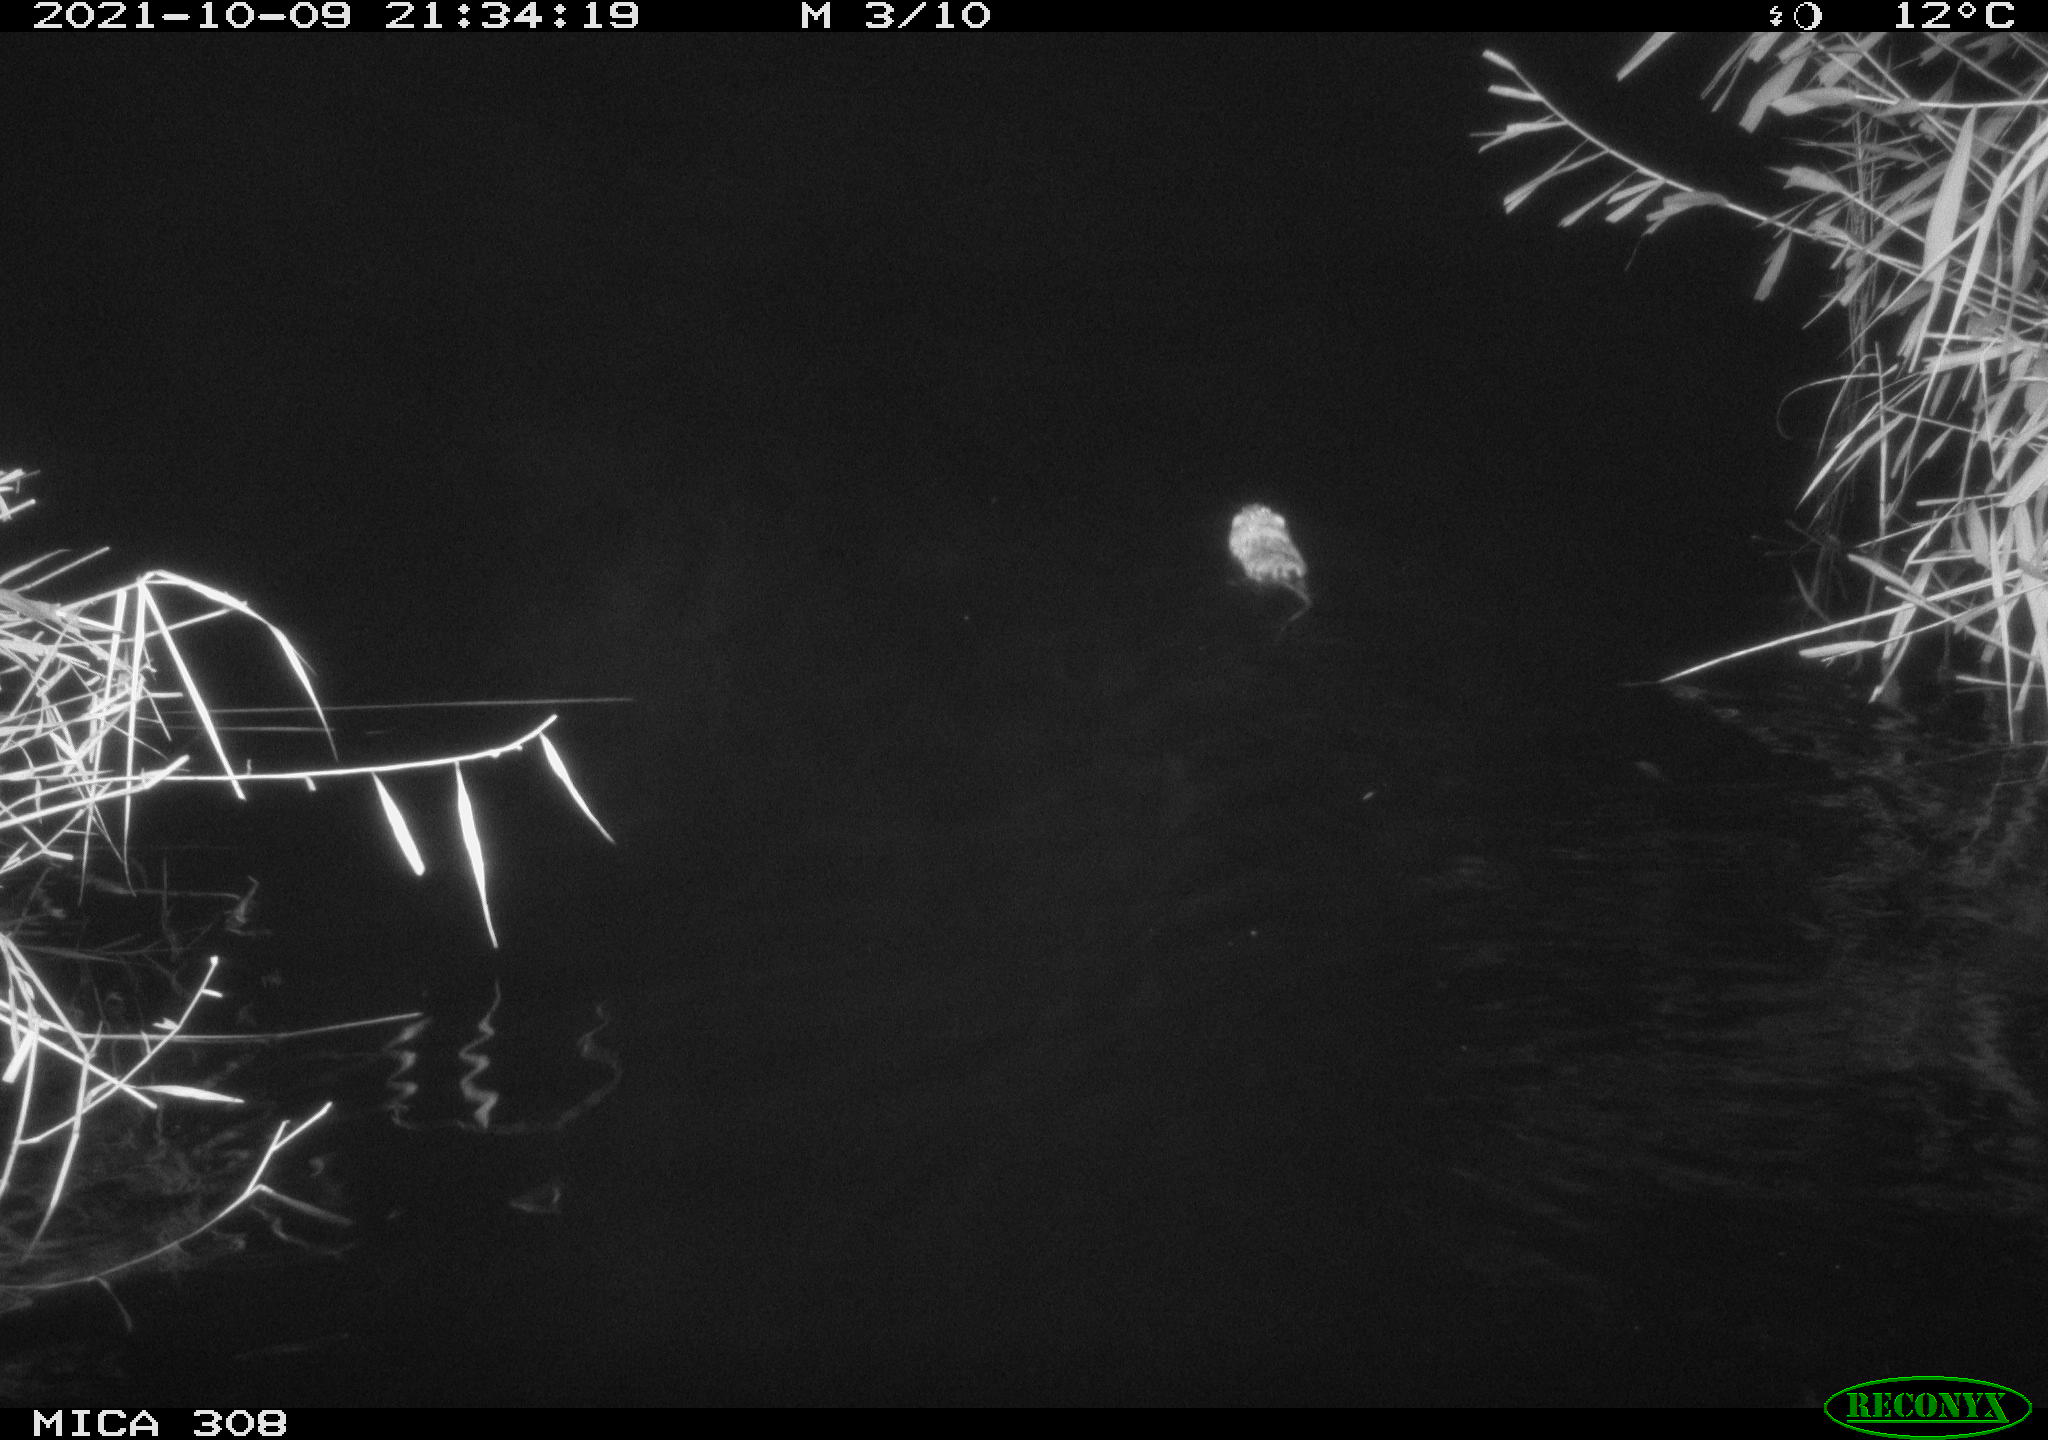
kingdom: Animalia
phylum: Chordata
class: Mammalia
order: Rodentia
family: Cricetidae
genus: Ondatra
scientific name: Ondatra zibethicus
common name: Muskrat
